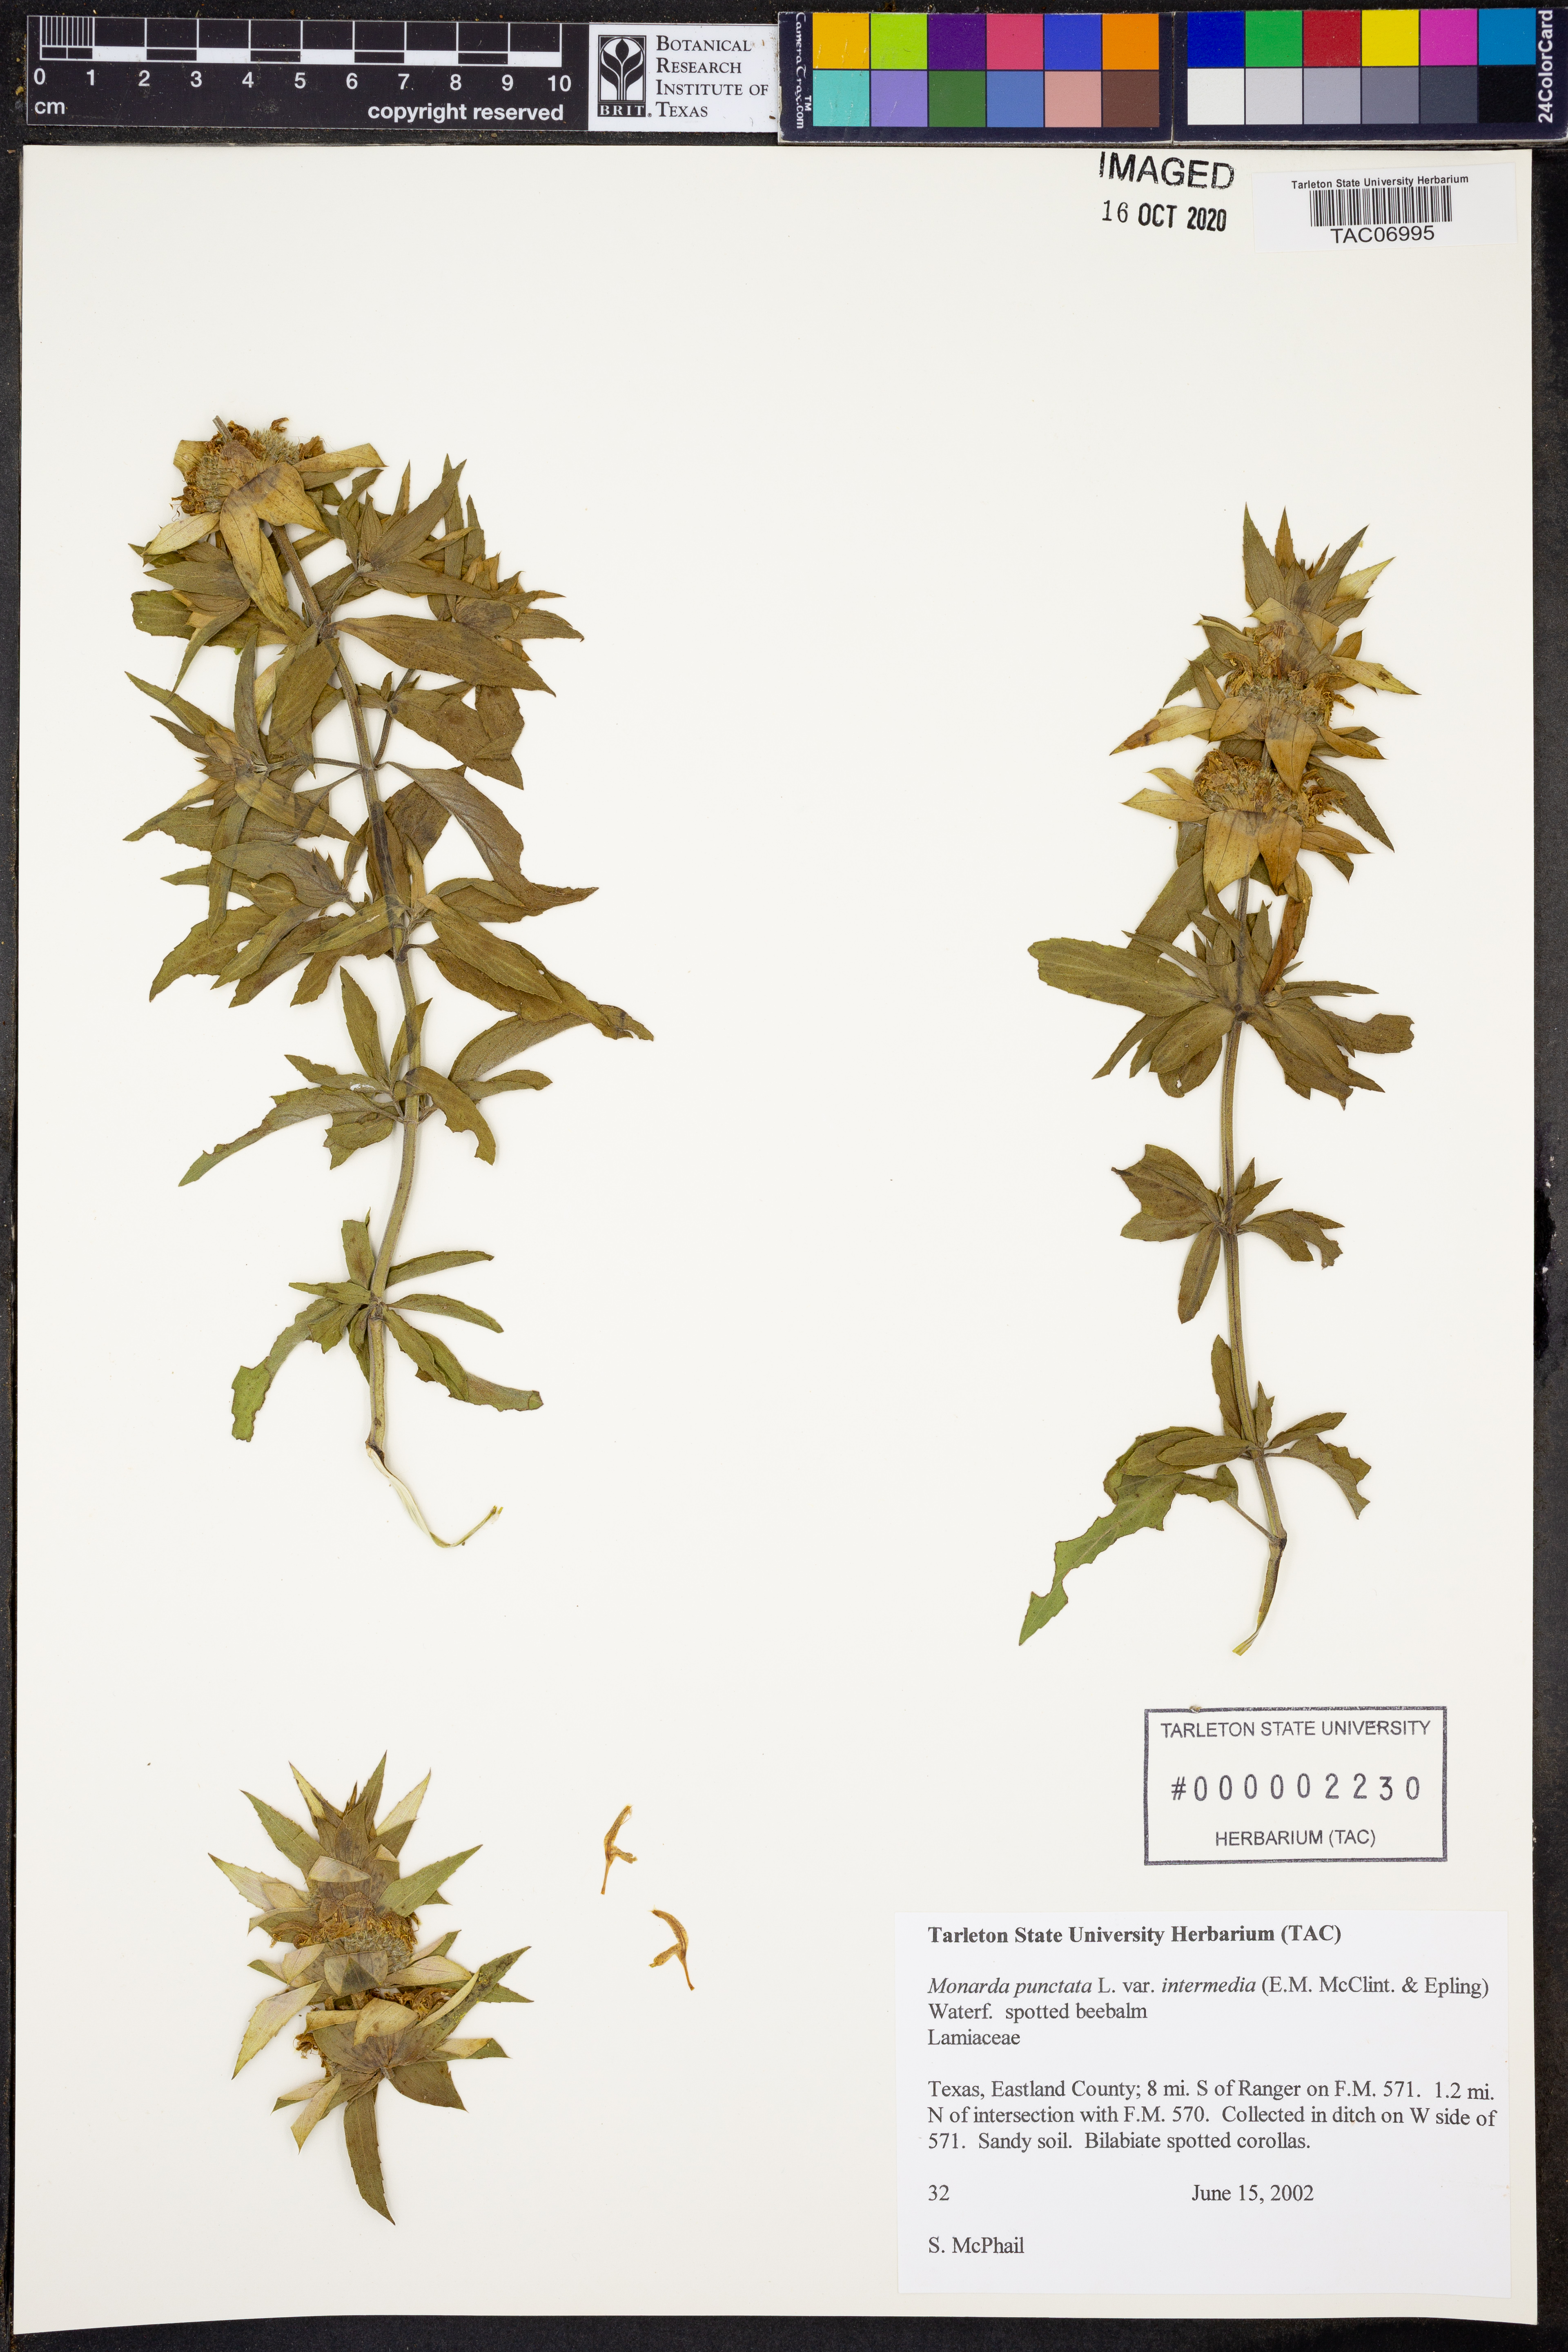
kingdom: Plantae
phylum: Tracheophyta
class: Magnoliopsida
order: Lamiales
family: Lamiaceae
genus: Monarda
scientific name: Monarda punctata
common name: Dotted monarda
